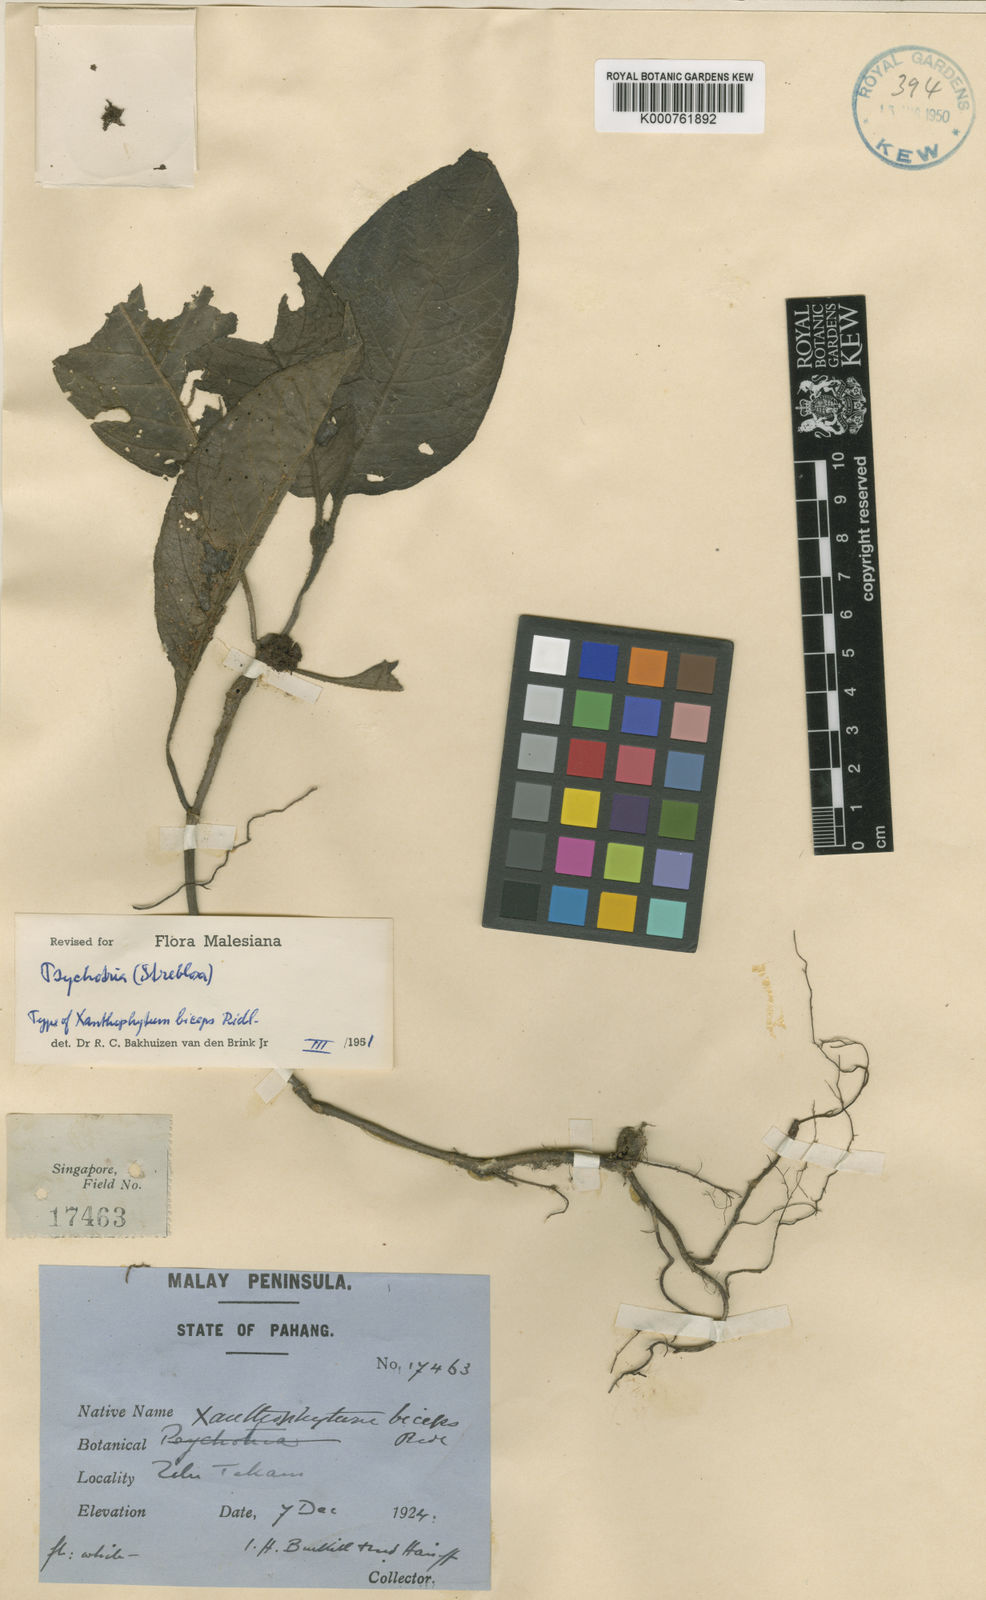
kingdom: Plantae
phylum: Tracheophyta
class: Magnoliopsida
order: Gentianales
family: Rubiaceae
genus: Streblosa
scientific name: Streblosa
